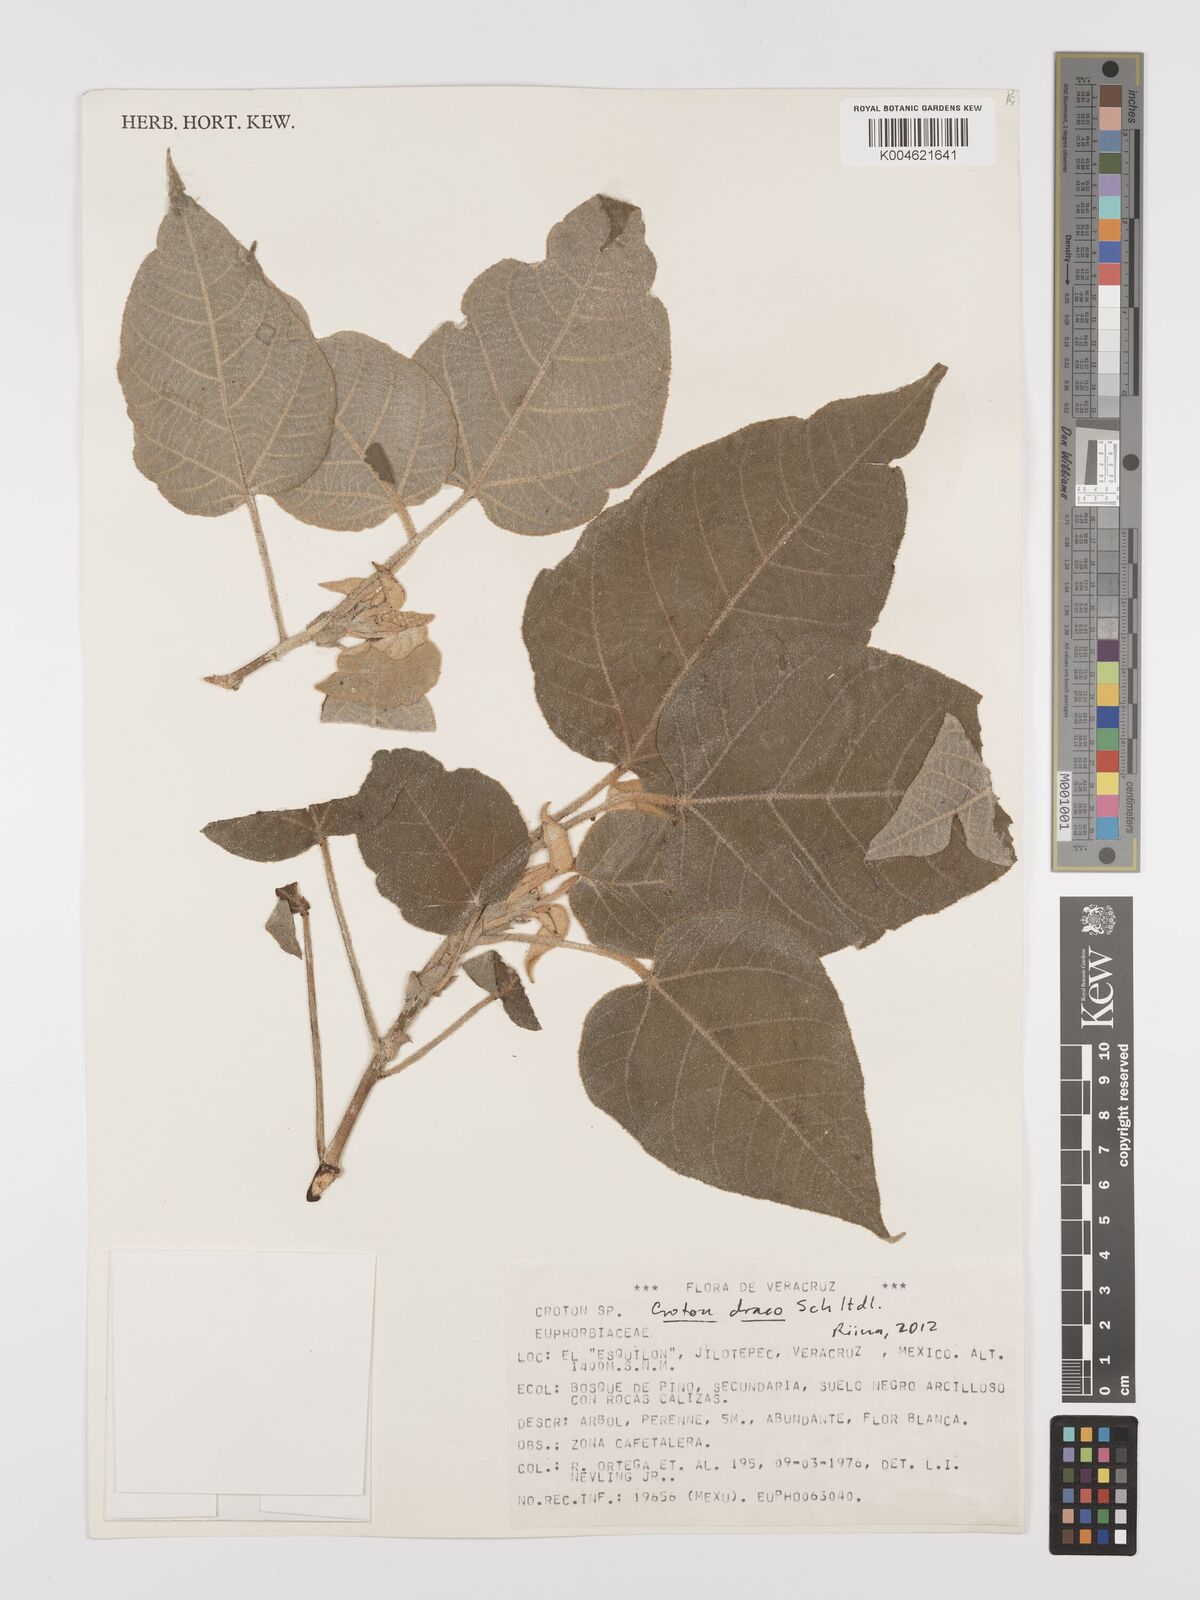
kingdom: Plantae
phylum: Tracheophyta
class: Magnoliopsida
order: Malpighiales
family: Euphorbiaceae
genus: Croton
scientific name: Croton draco
